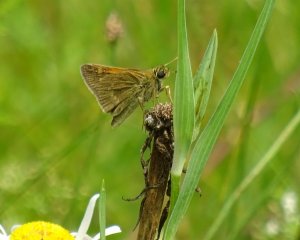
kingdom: Animalia
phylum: Arthropoda
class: Insecta
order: Lepidoptera
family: Hesperiidae
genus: Polites
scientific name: Polites themistocles
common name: Tawny-edged Skipper
